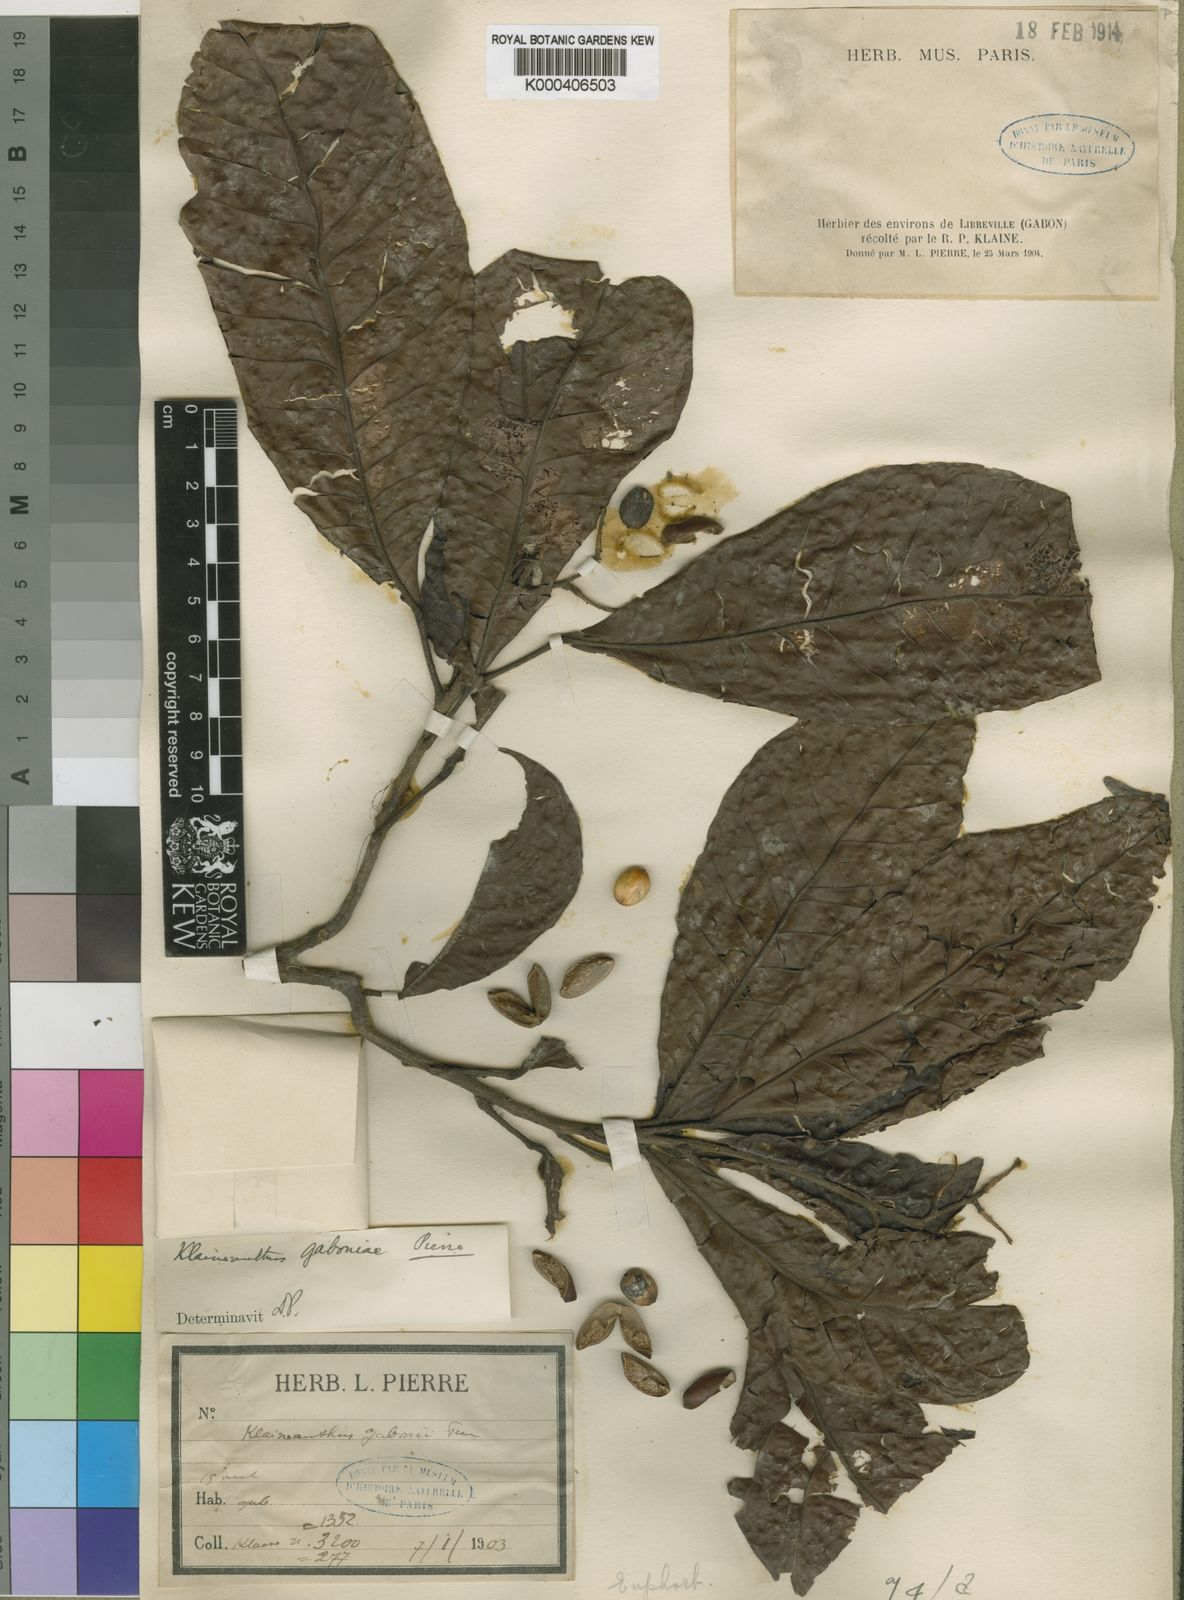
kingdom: Plantae
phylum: Tracheophyta
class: Magnoliopsida
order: Malpighiales
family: Euphorbiaceae
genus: Klaineanthus
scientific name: Klaineanthus
